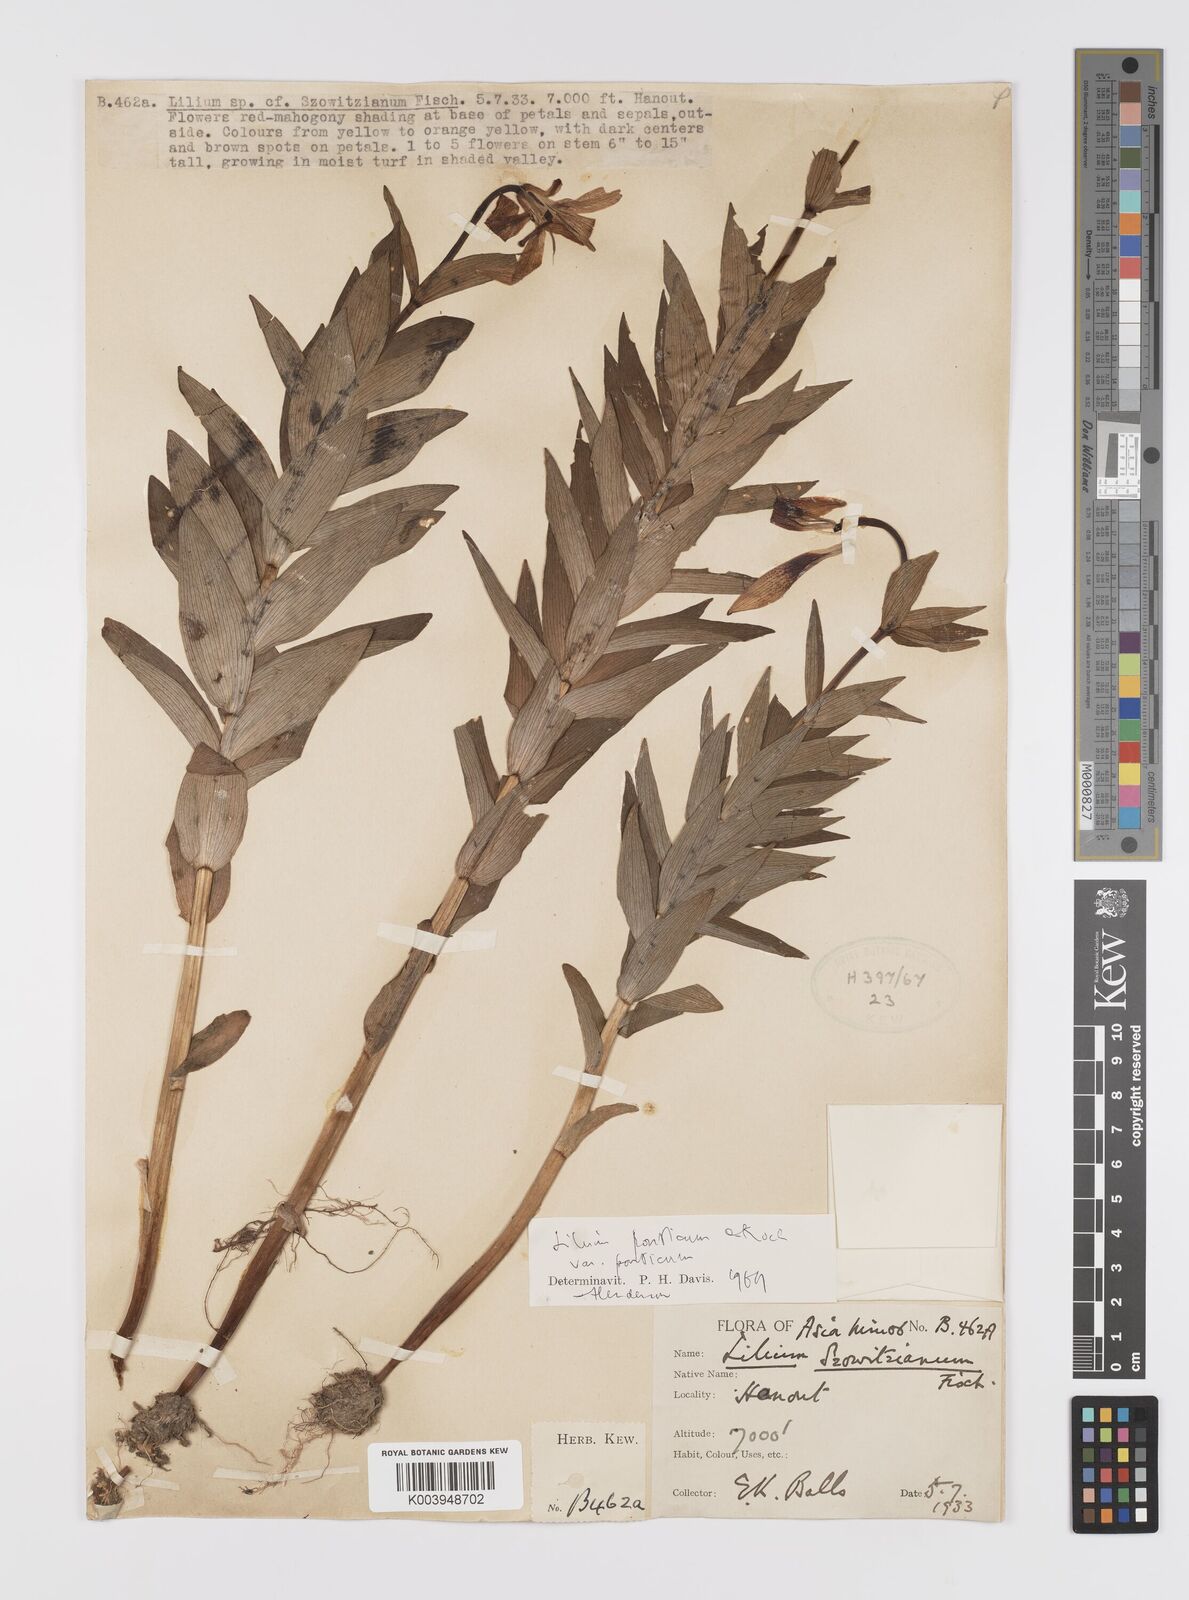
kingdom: Plantae
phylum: Tracheophyta
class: Liliopsida
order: Liliales
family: Liliaceae
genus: Lilium
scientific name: Lilium ponticum
